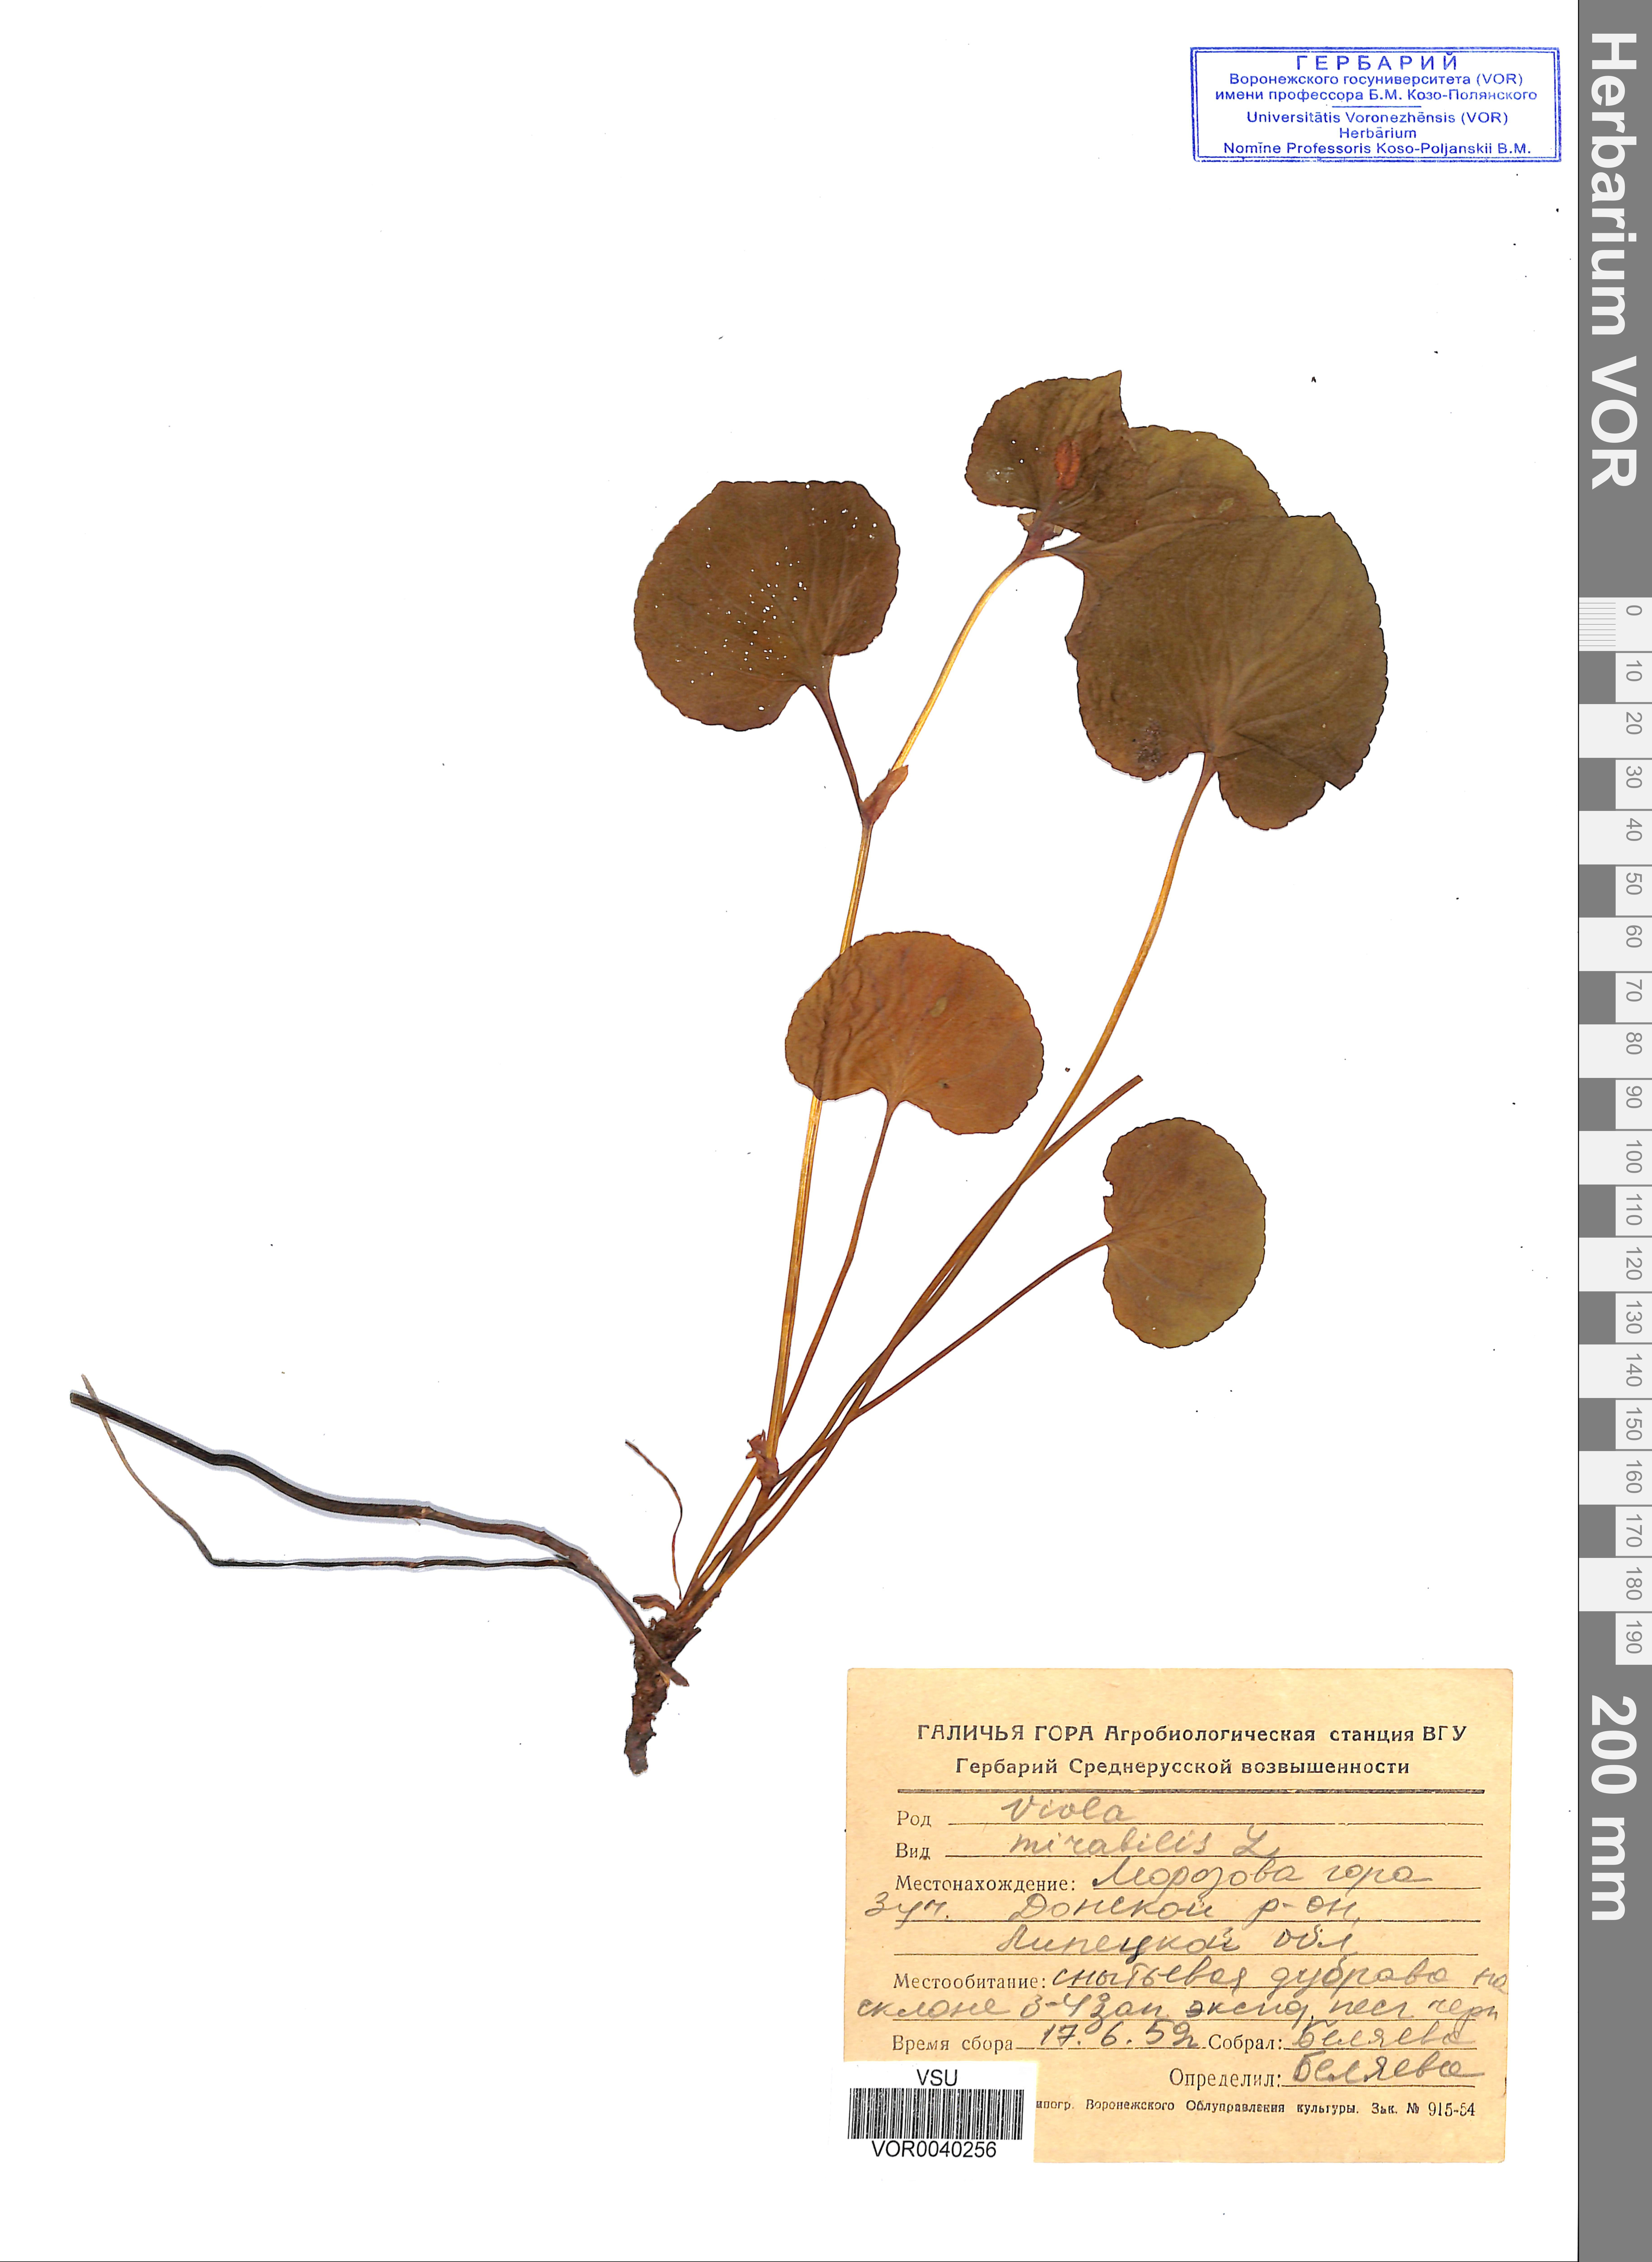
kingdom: Plantae
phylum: Tracheophyta
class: Magnoliopsida
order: Malpighiales
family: Violaceae
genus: Viola
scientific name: Viola mirabilis
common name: Wonder violet
